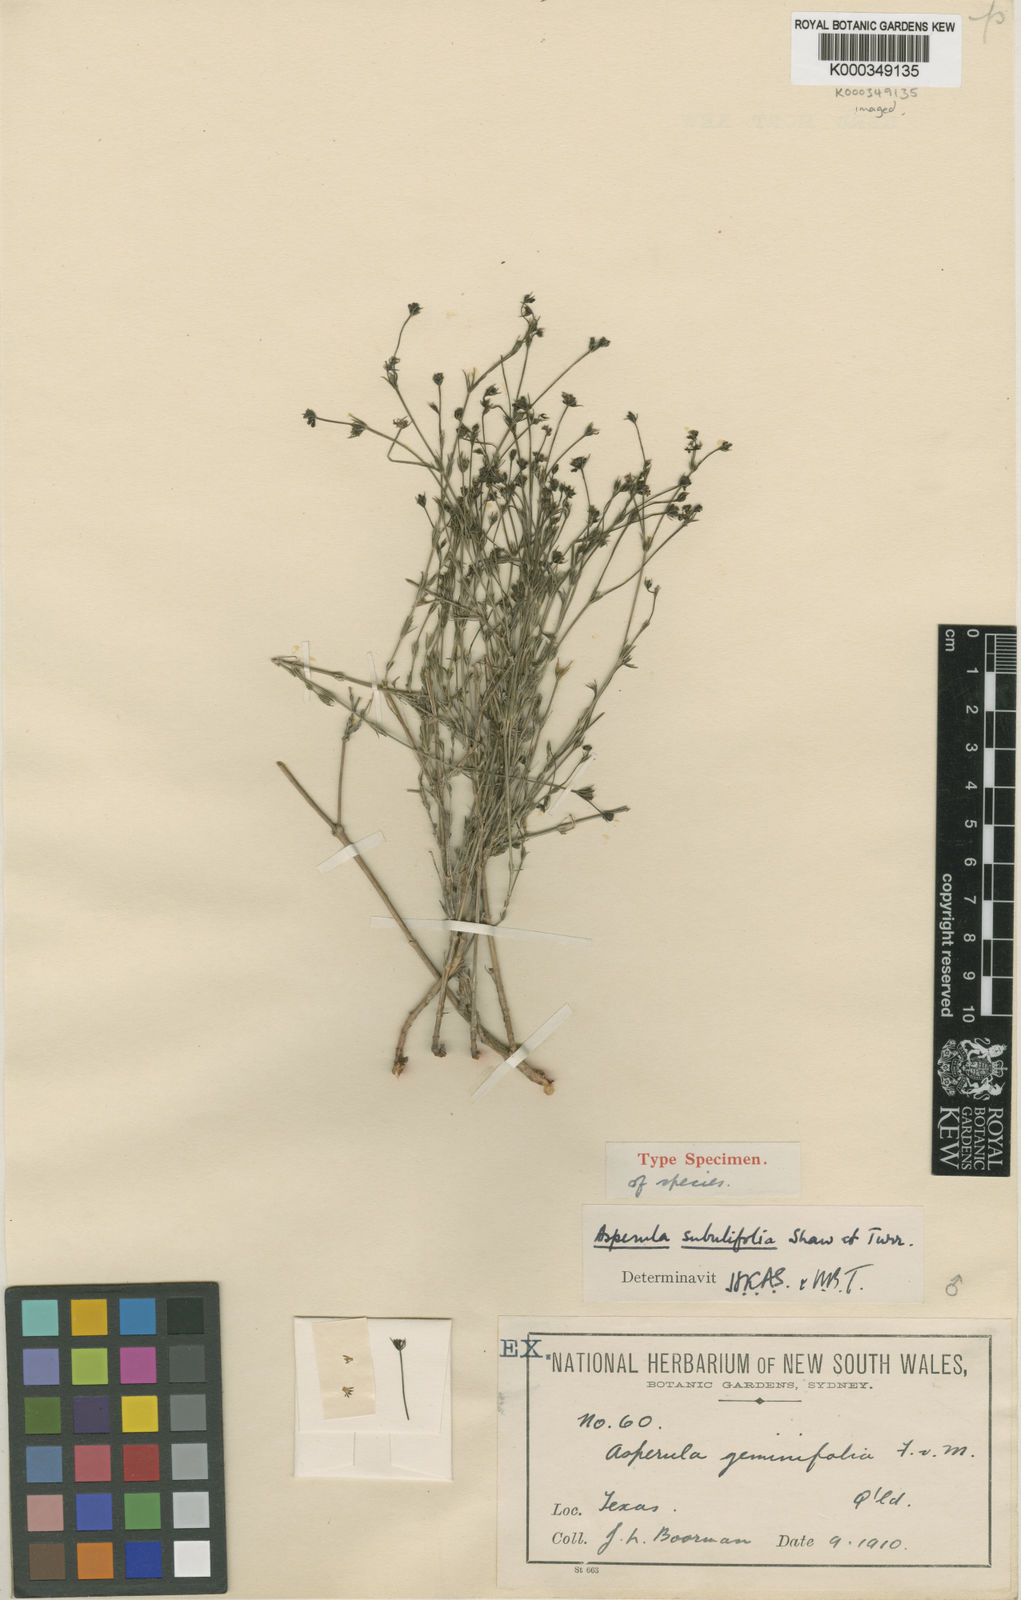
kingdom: Plantae
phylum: Tracheophyta
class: Magnoliopsida
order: Gentianales
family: Rubiaceae
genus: Asperula
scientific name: Asperula subulifolia
